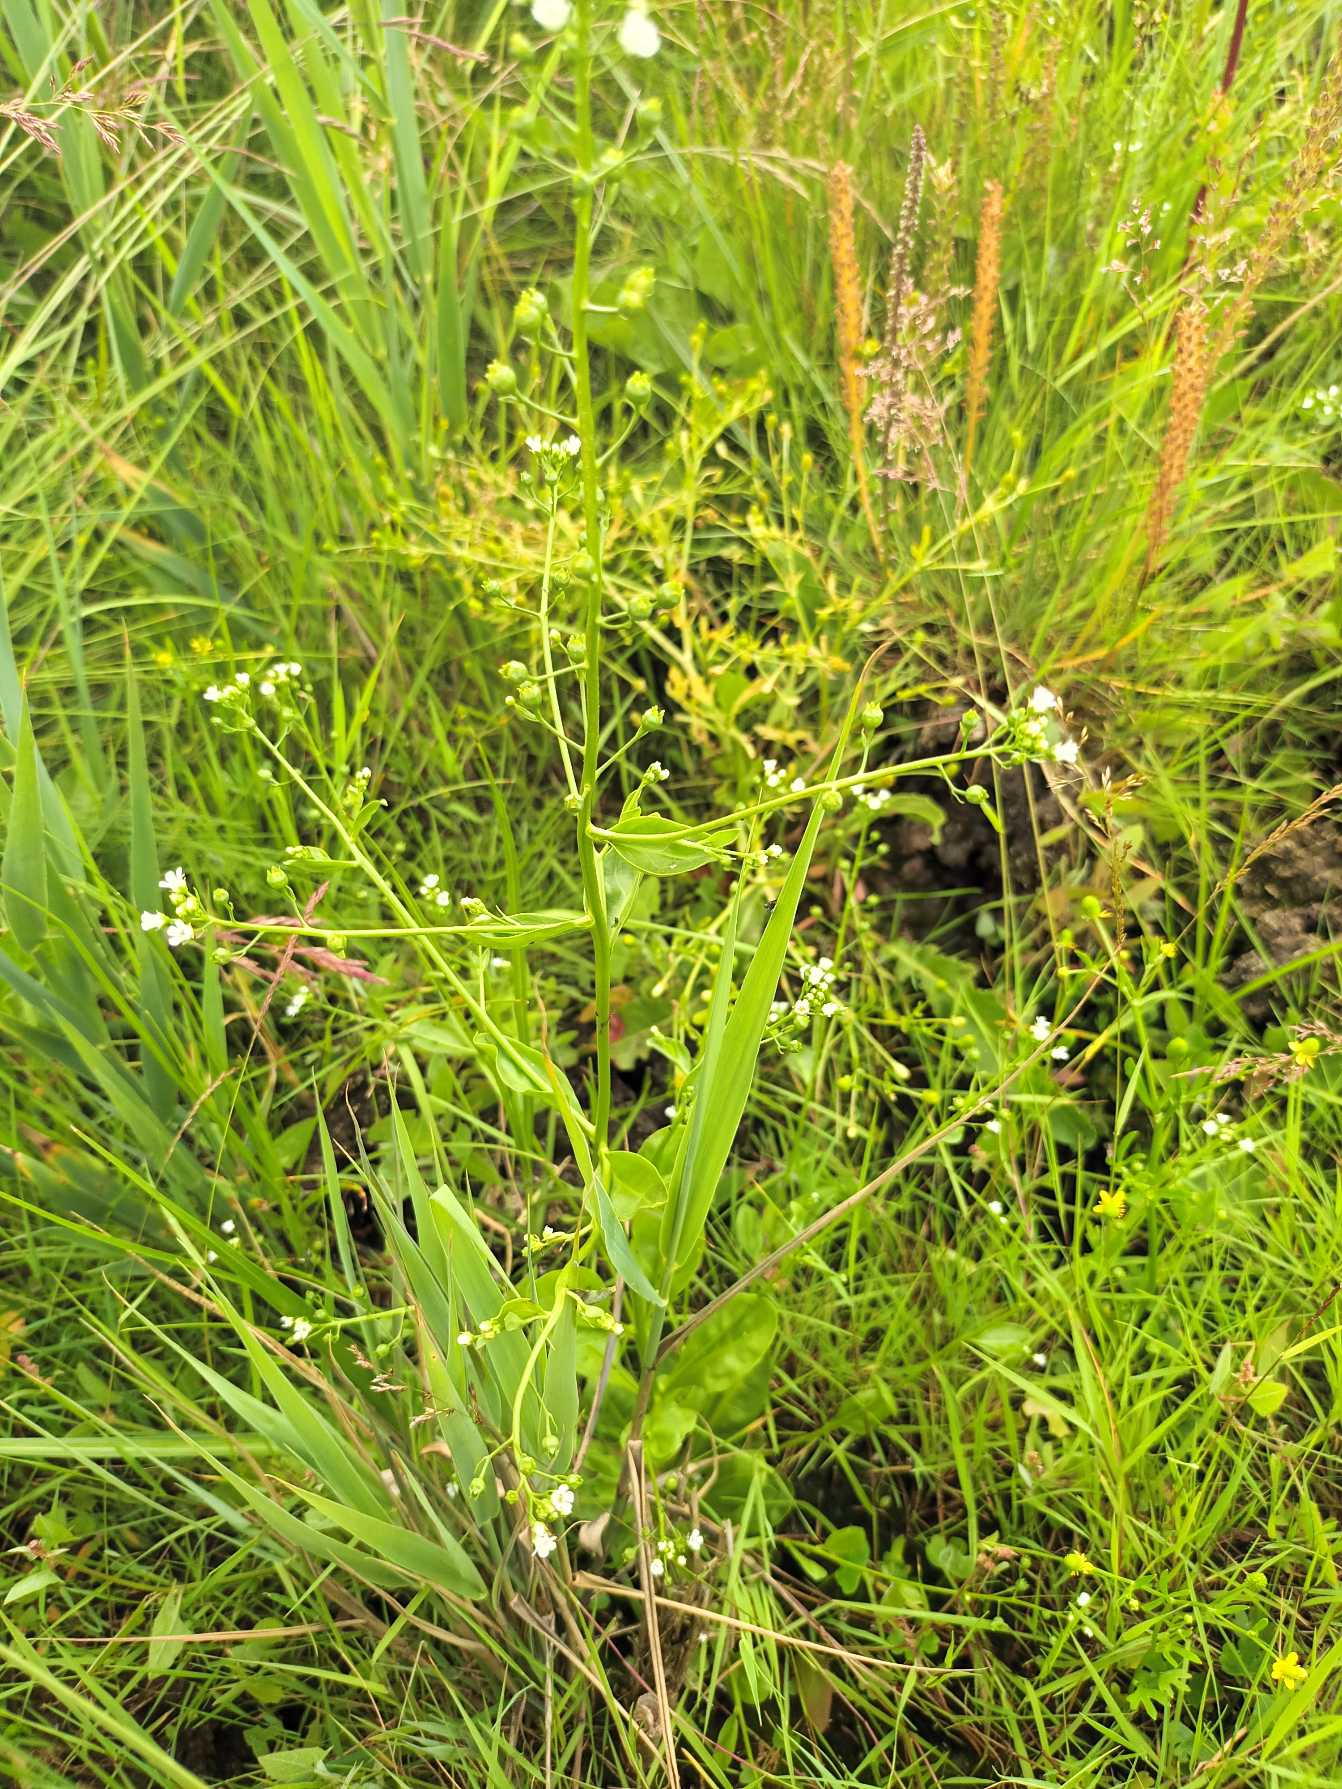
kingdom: Plantae
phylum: Tracheophyta
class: Magnoliopsida
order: Ericales
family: Primulaceae
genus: Samolus
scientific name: Samolus valerandi
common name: Samel
